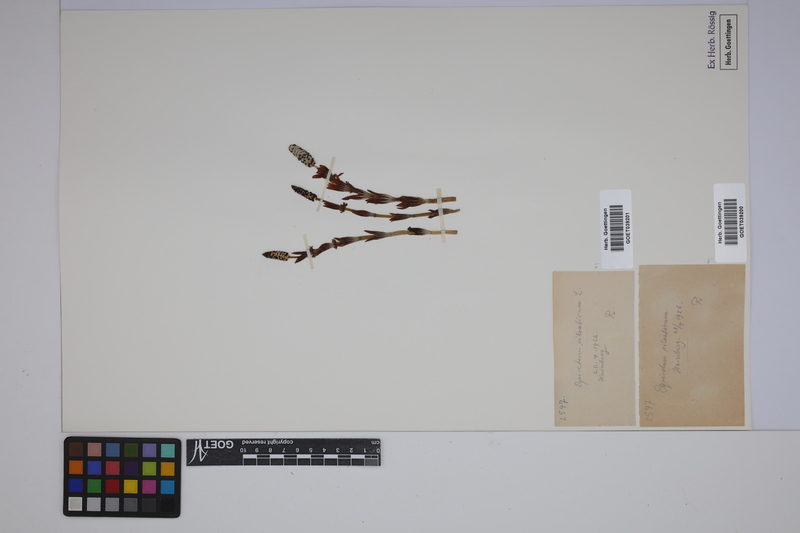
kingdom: Plantae
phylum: Tracheophyta
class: Polypodiopsida
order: Equisetales
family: Equisetaceae
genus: Equisetum
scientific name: Equisetum sylvaticum
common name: Wood horsetail
